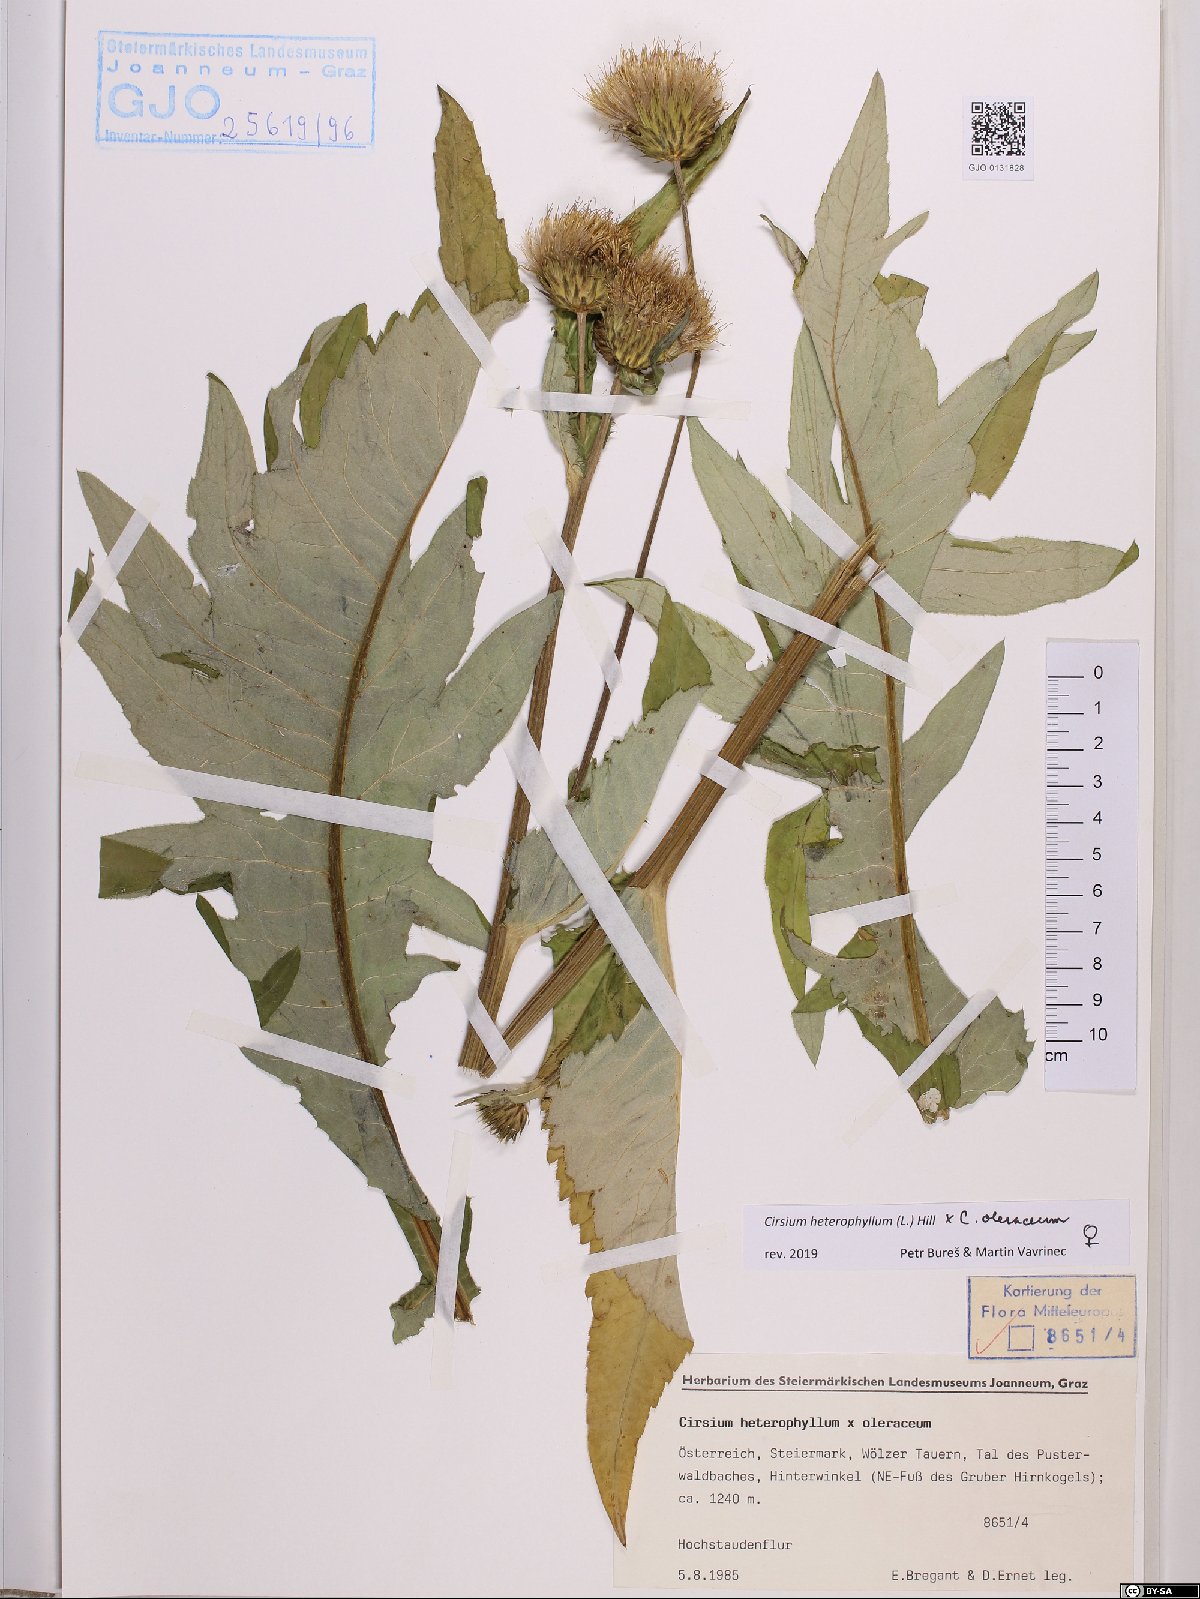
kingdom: Plantae
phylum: Tracheophyta
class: Magnoliopsida
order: Asterales
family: Asteraceae
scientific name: Asteraceae
